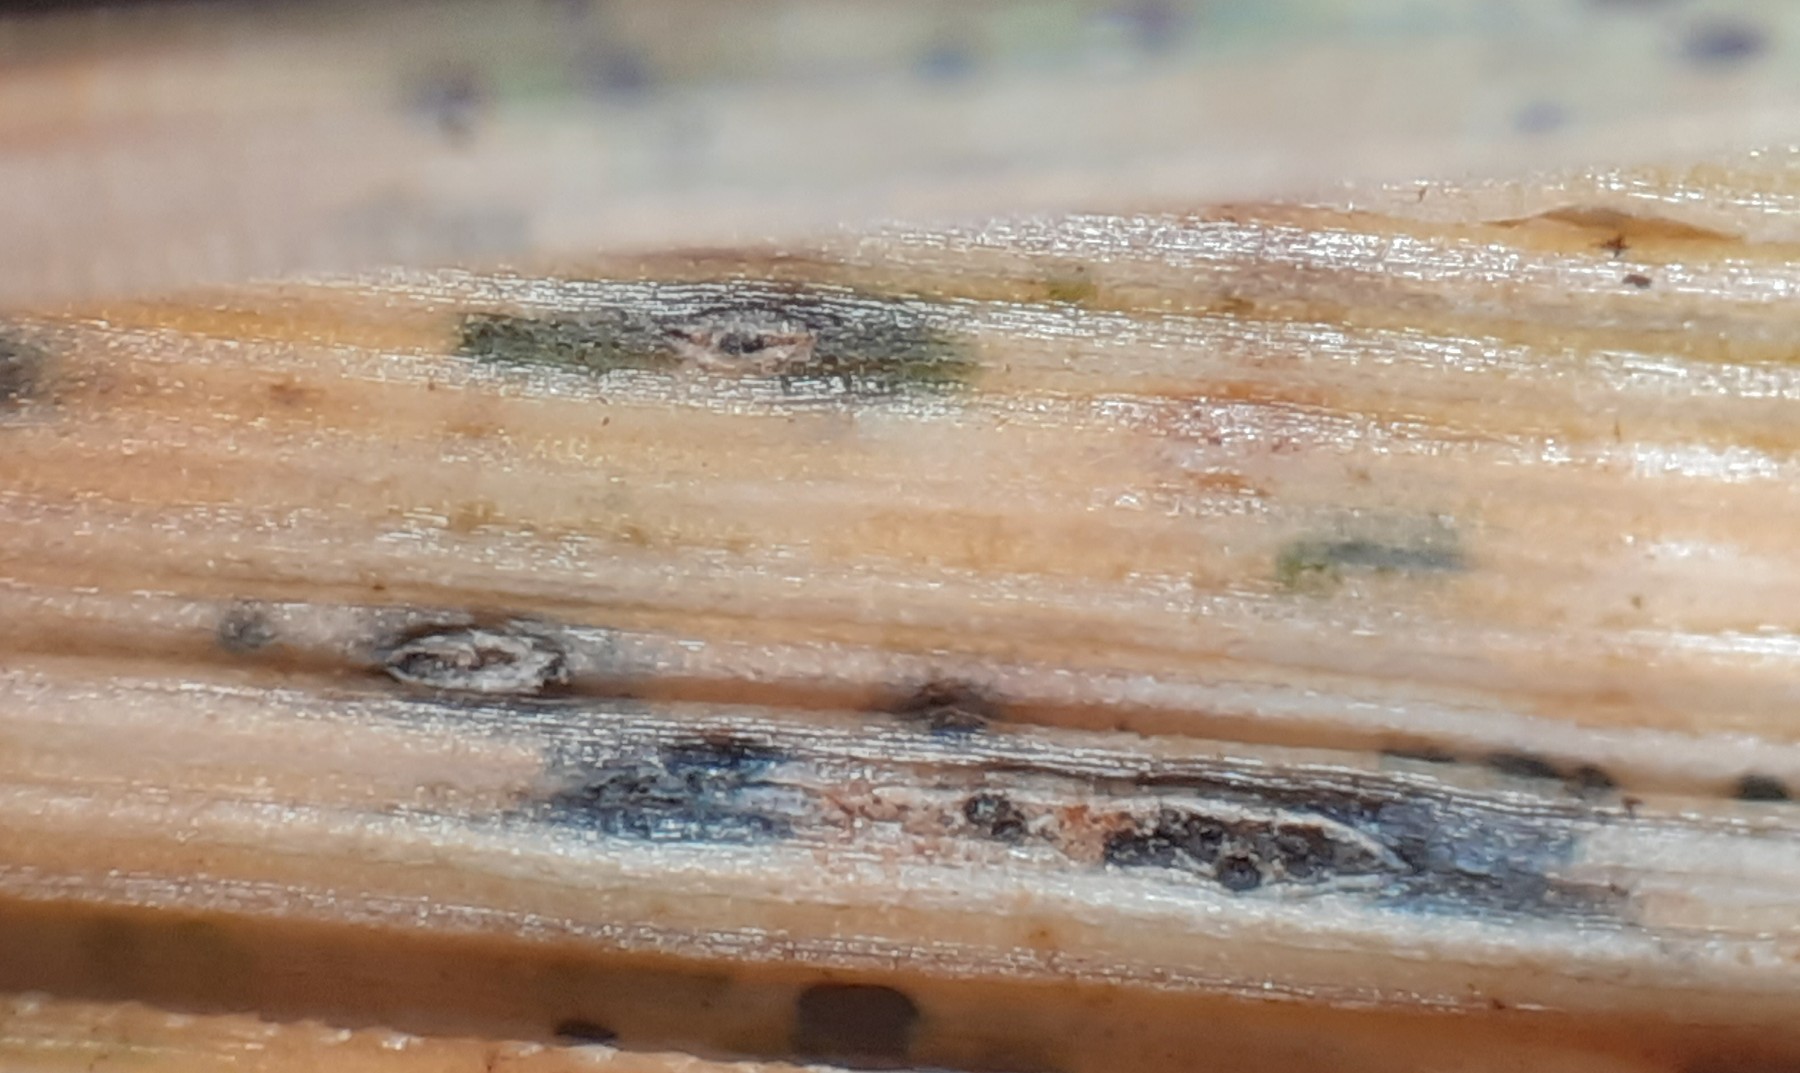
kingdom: Fungi
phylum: Ascomycota
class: Dothideomycetes
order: Pleosporales
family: Phaeosphaeriaceae
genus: Sphaerellopsis
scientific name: Sphaerellopsis filum
